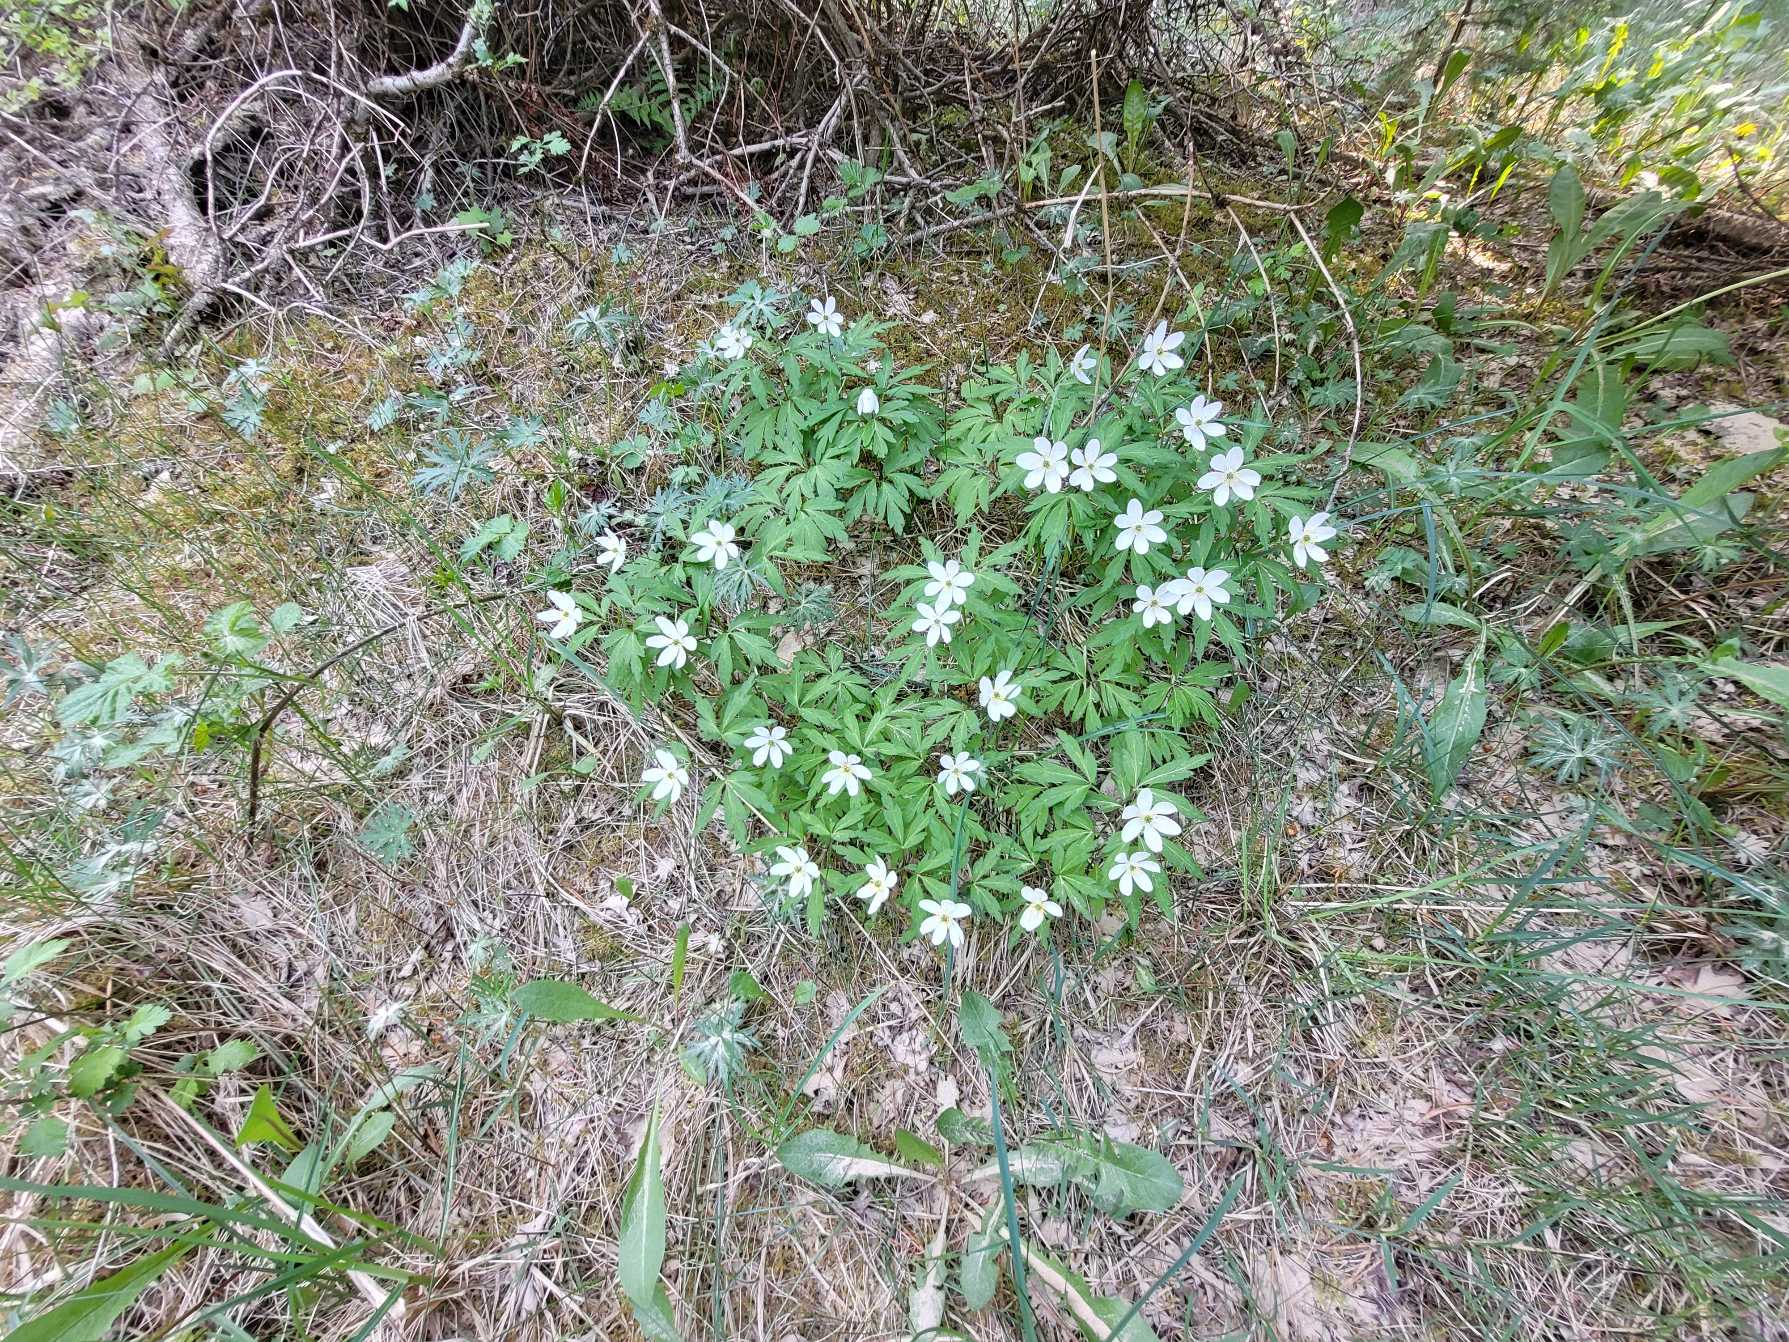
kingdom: Plantae
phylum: Tracheophyta
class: Magnoliopsida
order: Ranunculales
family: Ranunculaceae
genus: Anemone
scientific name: Anemone nemorosa
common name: Hvid anemone
